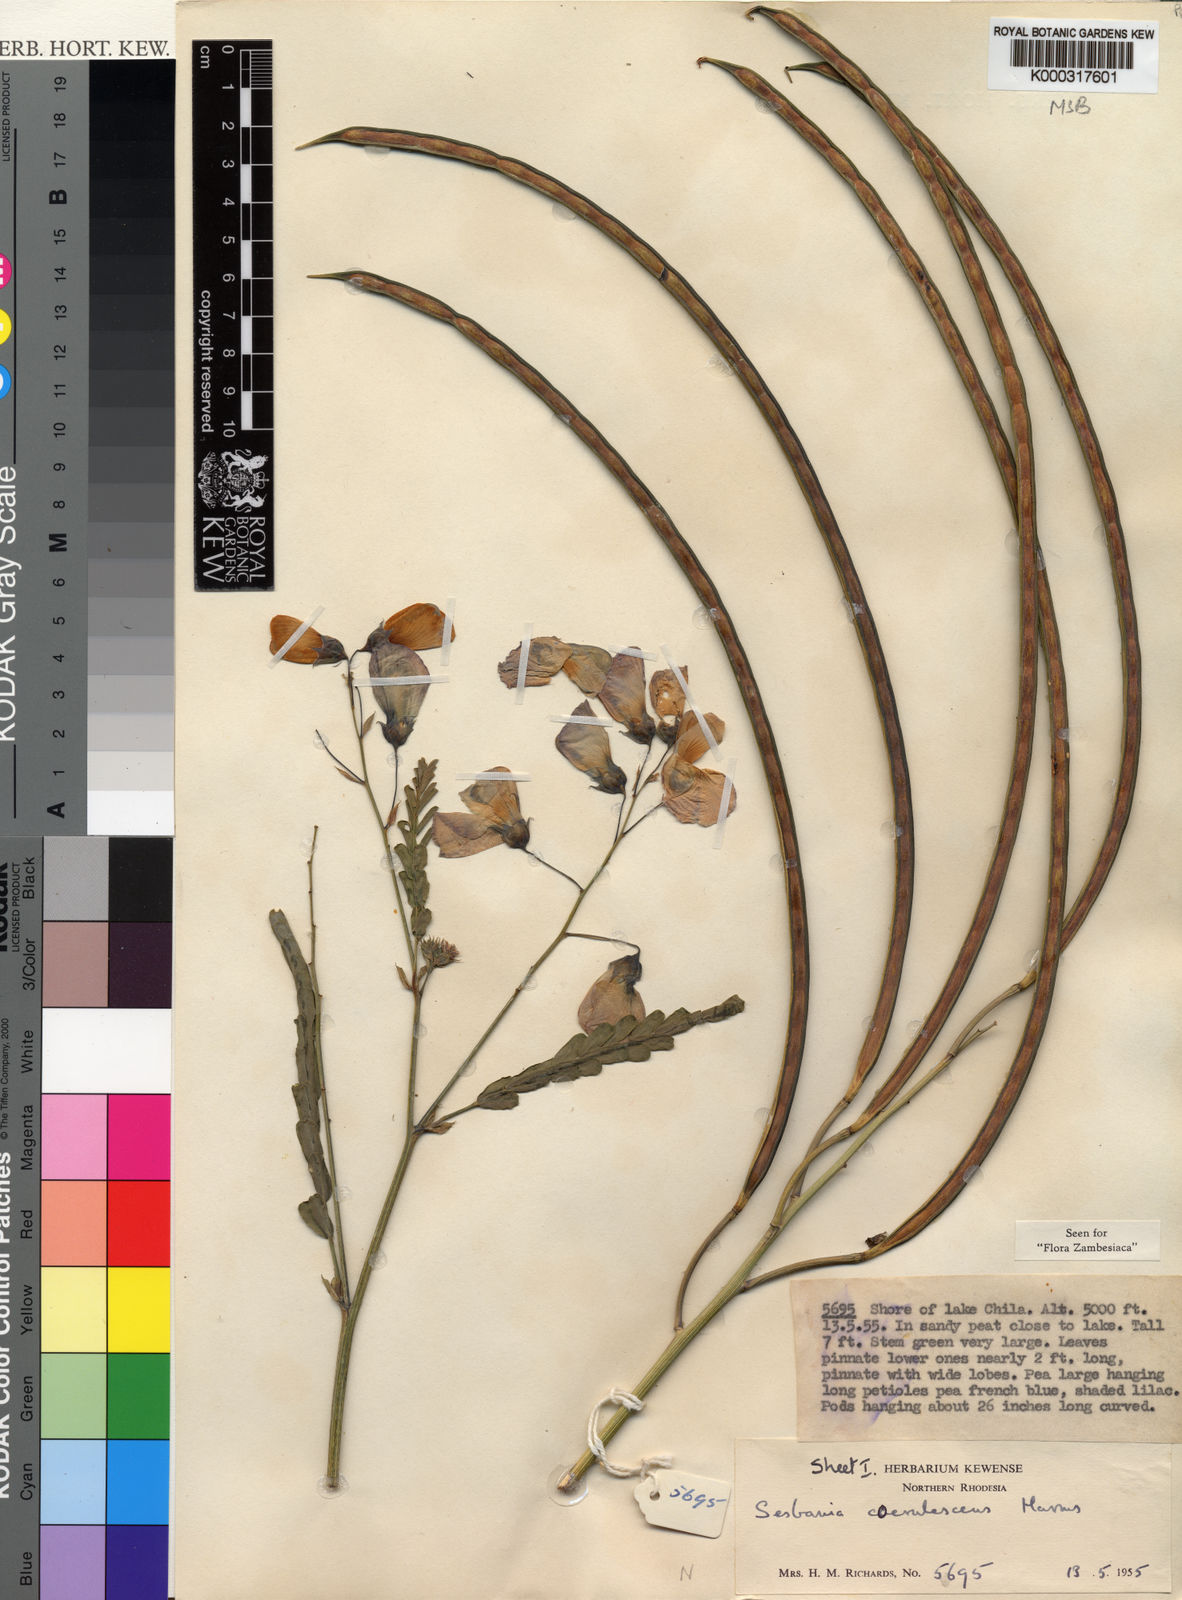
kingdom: Plantae
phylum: Tracheophyta
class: Magnoliopsida
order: Fabales
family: Fabaceae
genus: Sesbania
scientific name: Sesbania coerulescens
